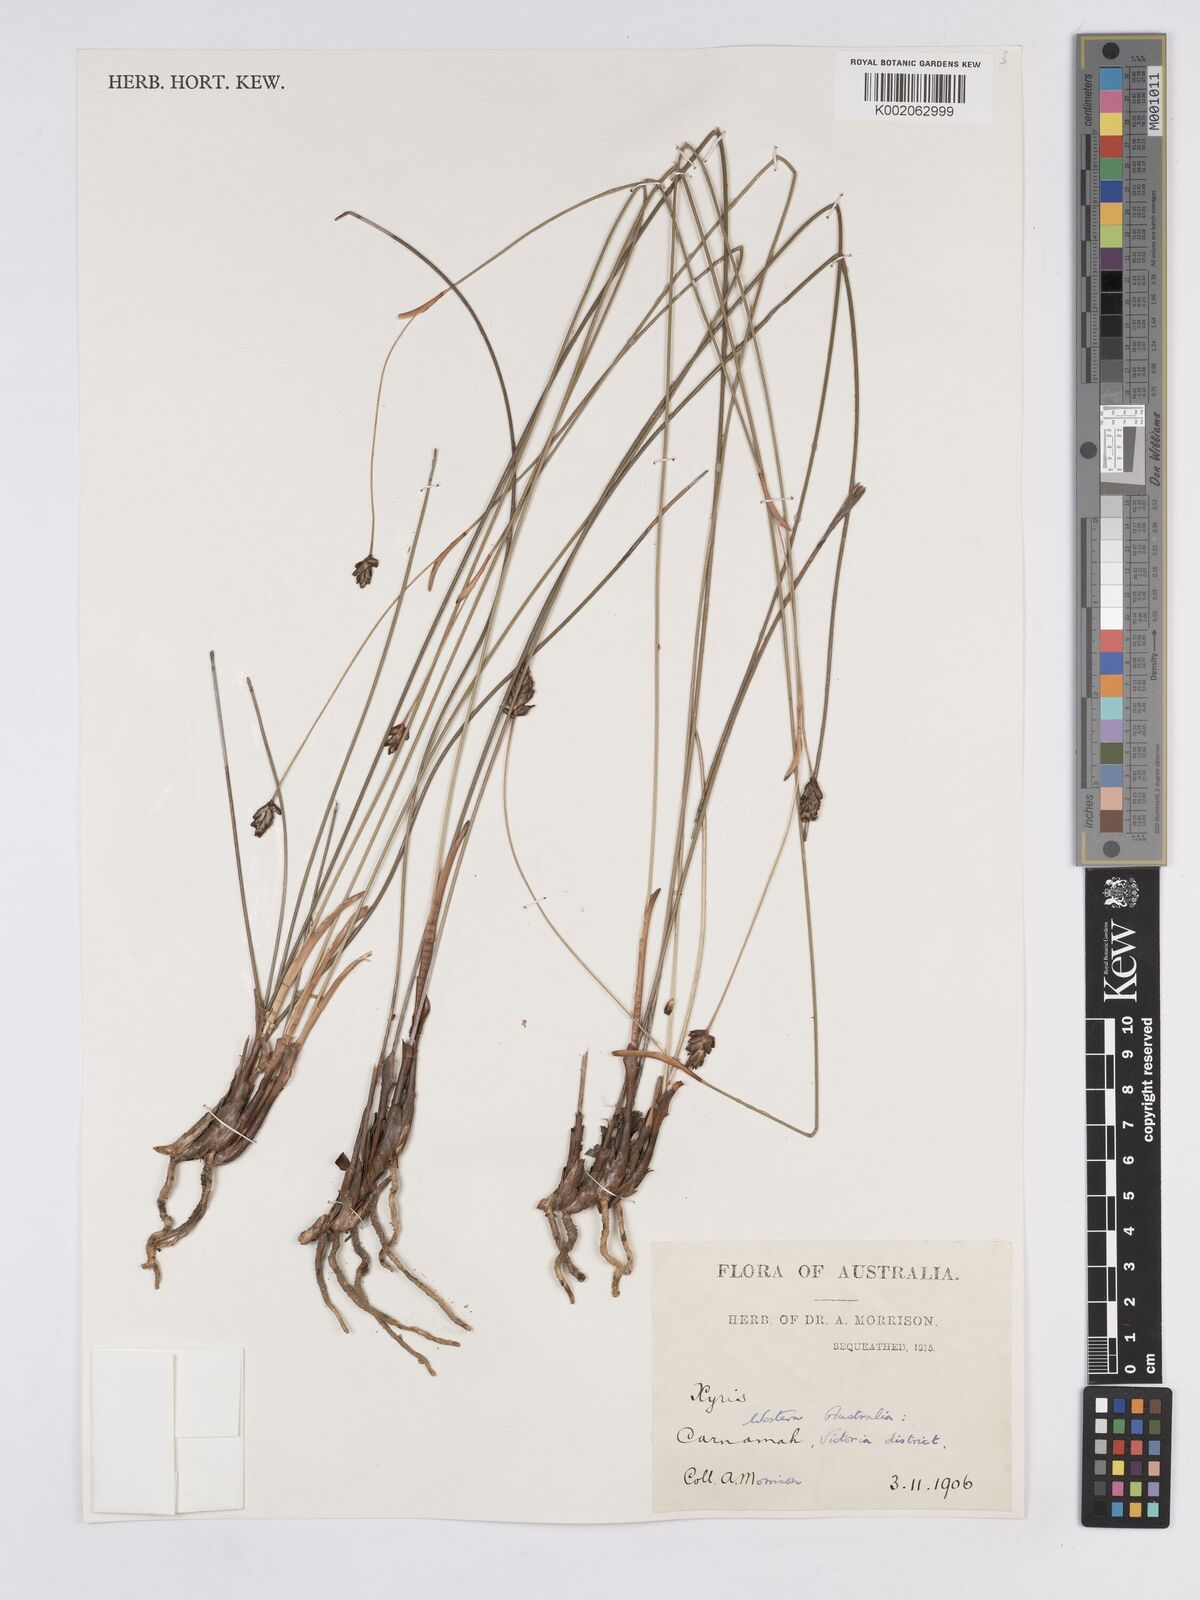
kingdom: Plantae
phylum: Tracheophyta
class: Liliopsida
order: Poales
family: Xyridaceae
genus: Xyris
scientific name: Xyris
